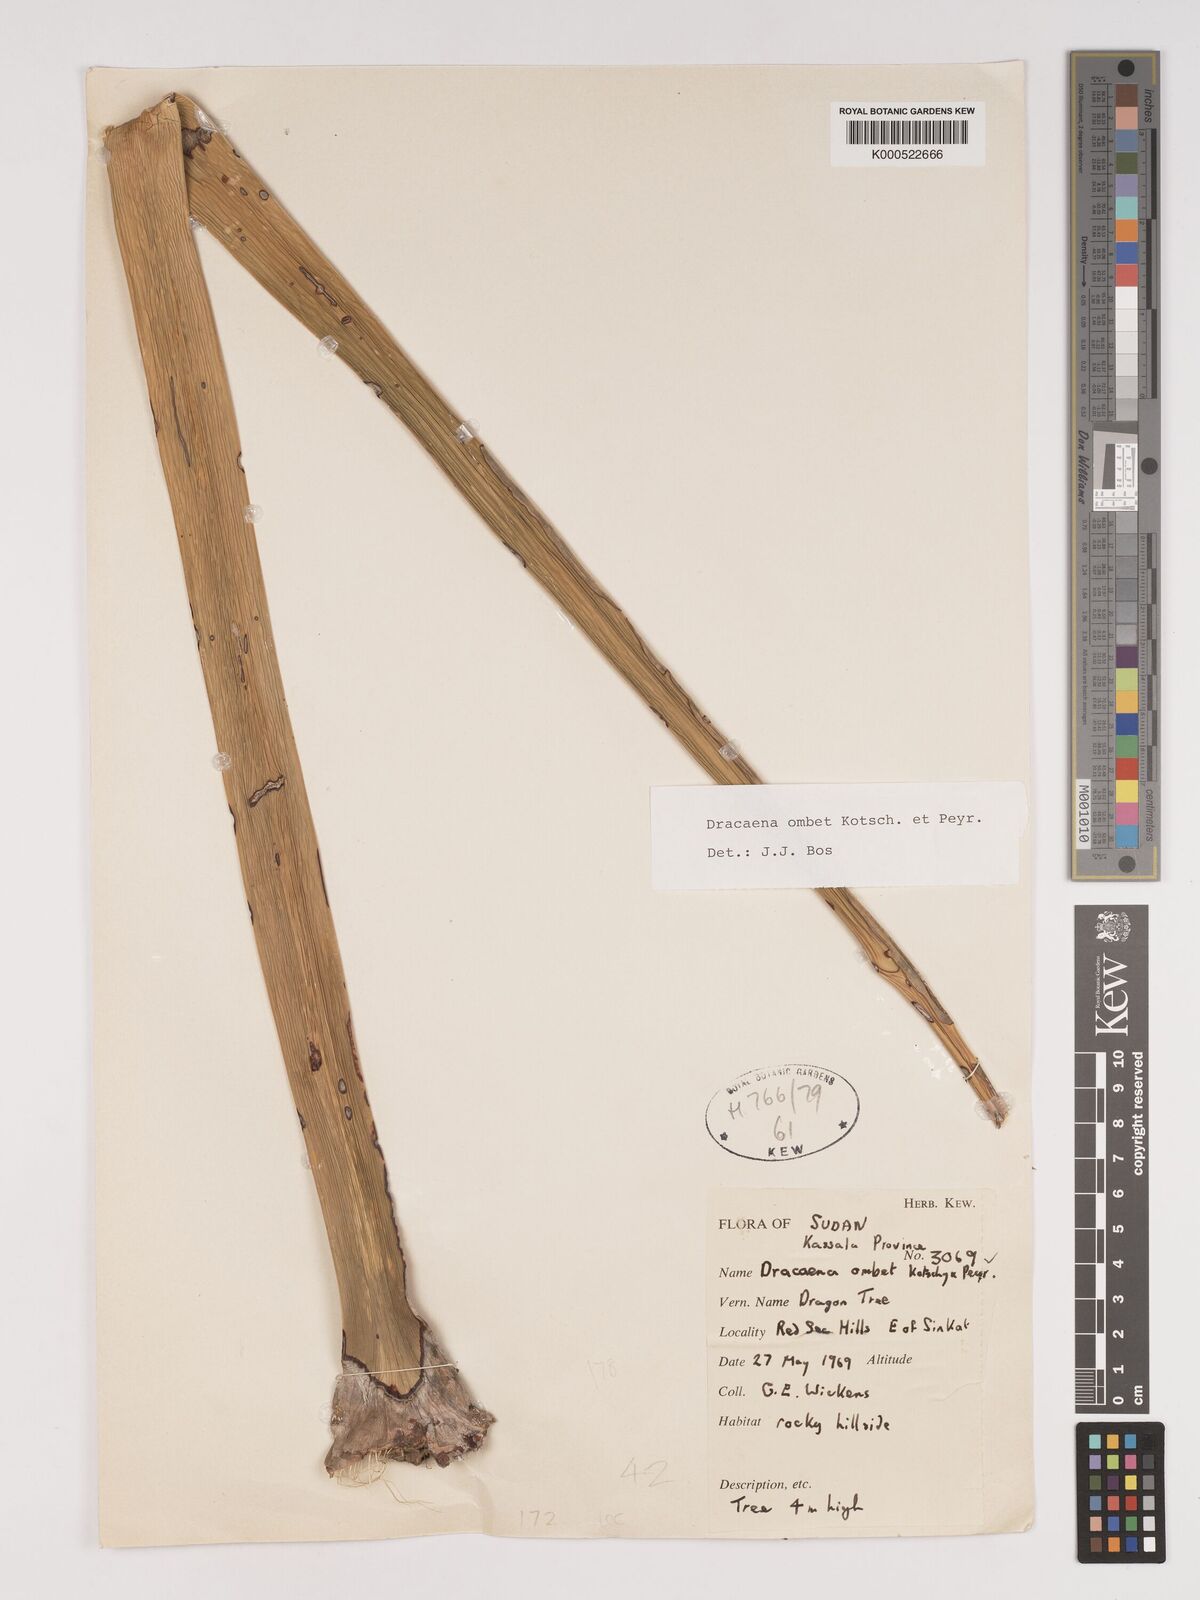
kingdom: Plantae
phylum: Tracheophyta
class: Liliopsida
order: Asparagales
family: Asparagaceae
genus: Dracaena
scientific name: Dracaena ombet
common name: Gabal elba dragon tree
